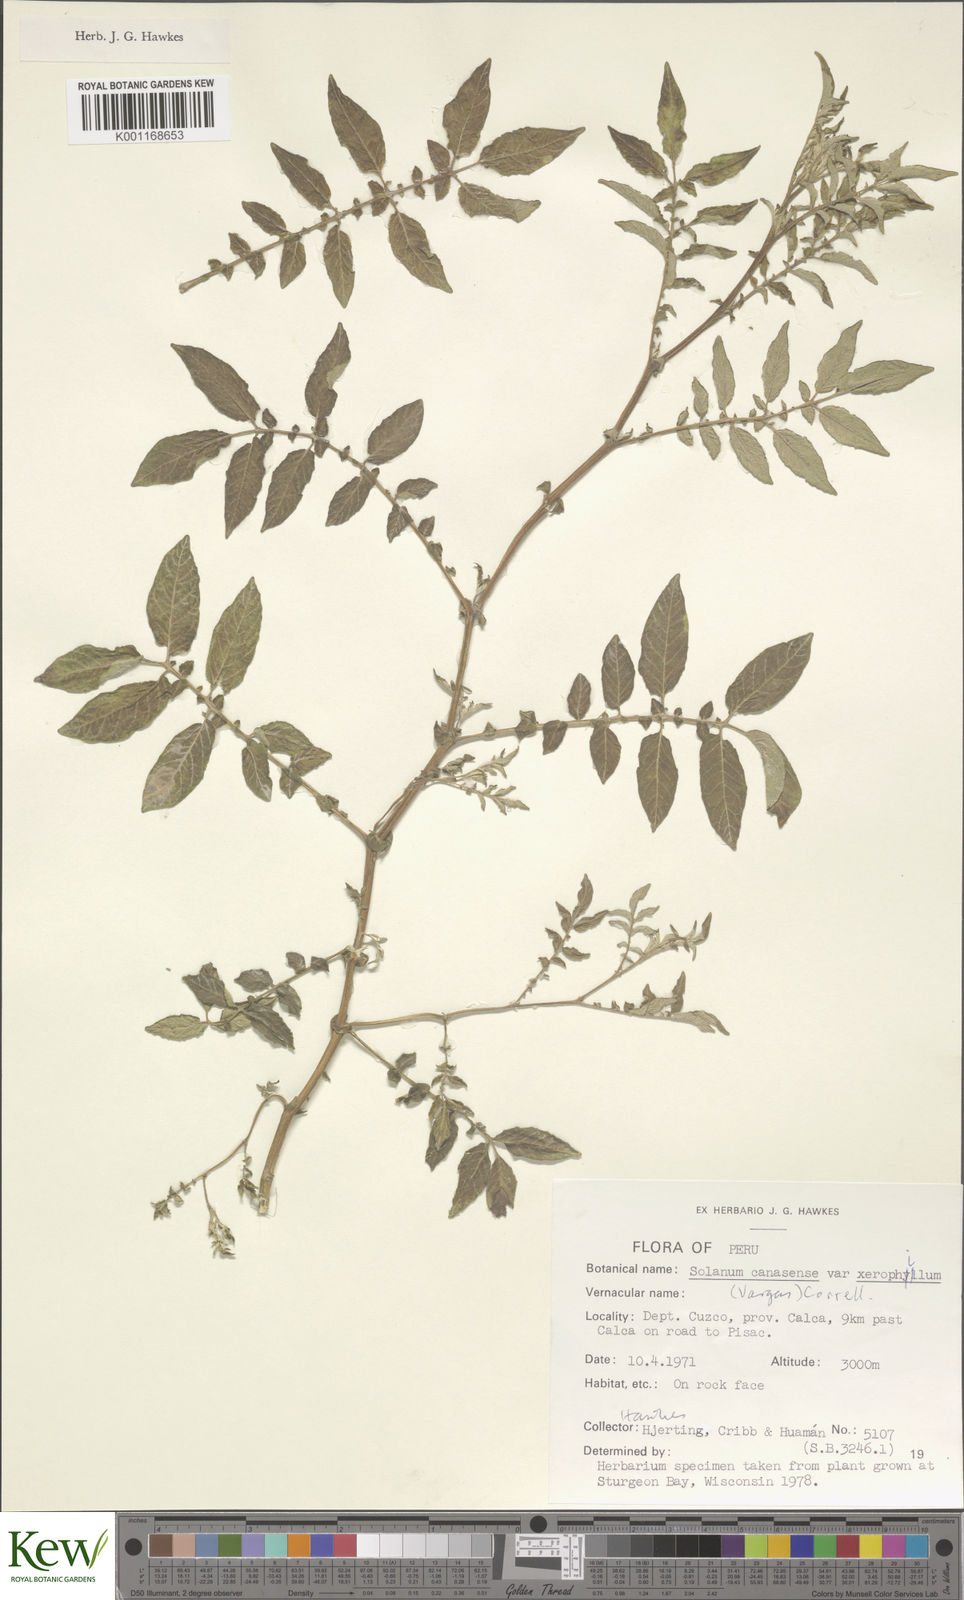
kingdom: Plantae
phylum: Tracheophyta
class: Magnoliopsida
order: Solanales
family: Solanaceae
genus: Solanum
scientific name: Solanum candolleanum
